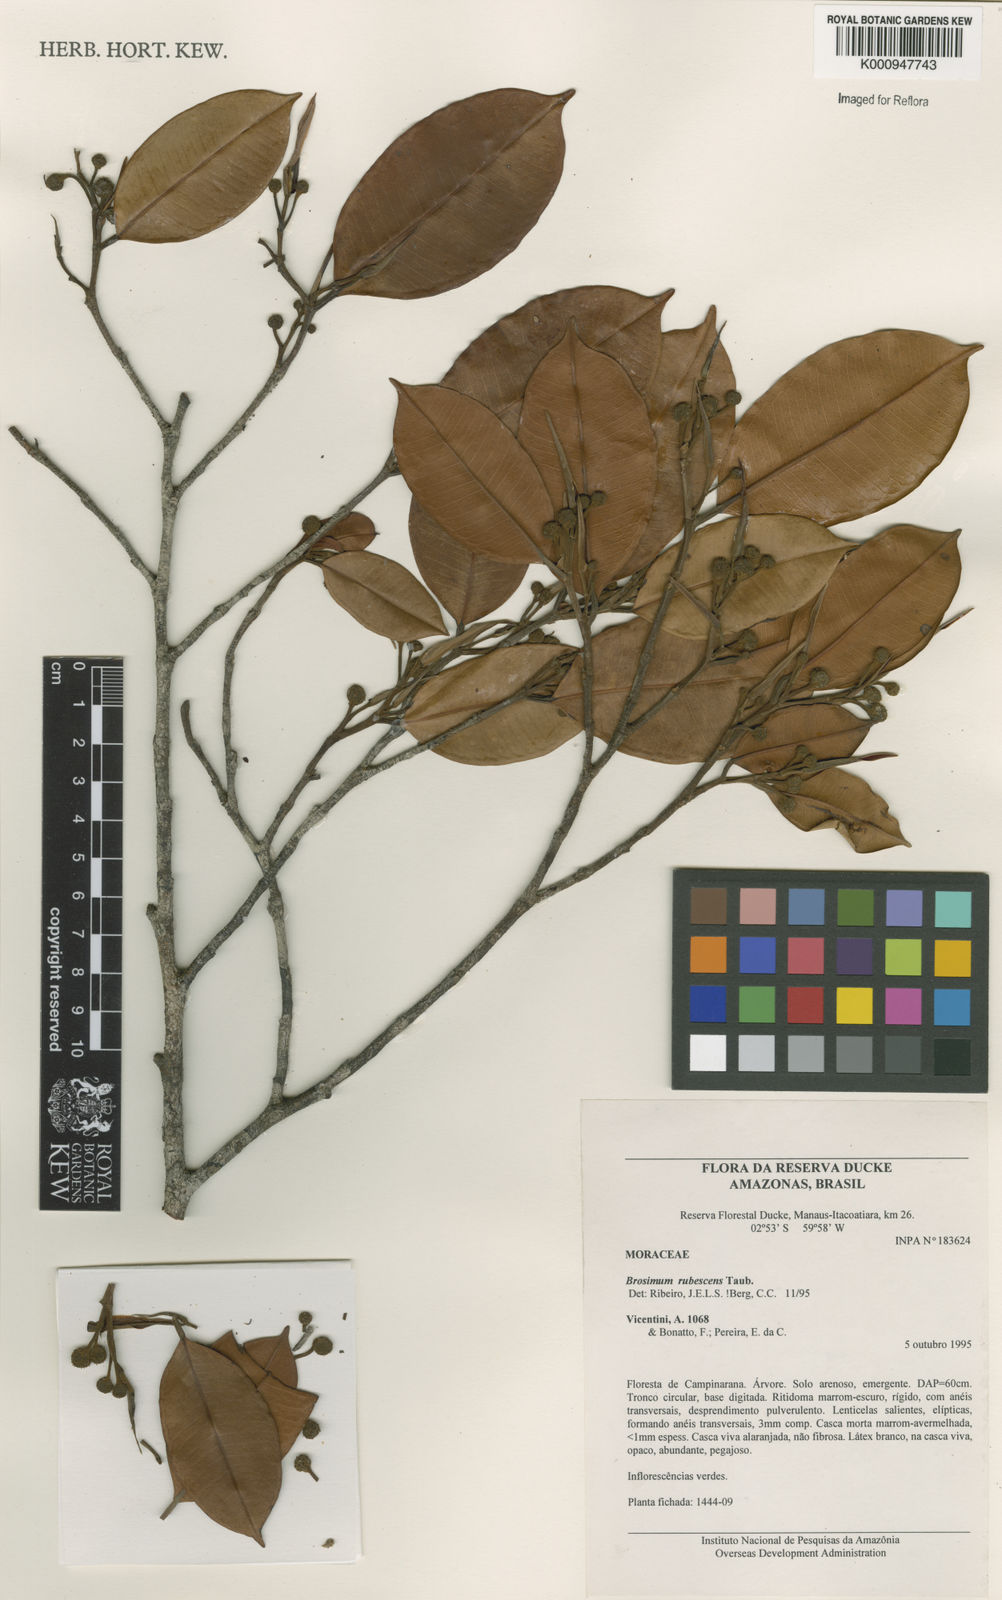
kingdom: Plantae
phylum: Tracheophyta
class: Magnoliopsida
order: Rosales
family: Moraceae
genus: Brosimum
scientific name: Brosimum rubescens
